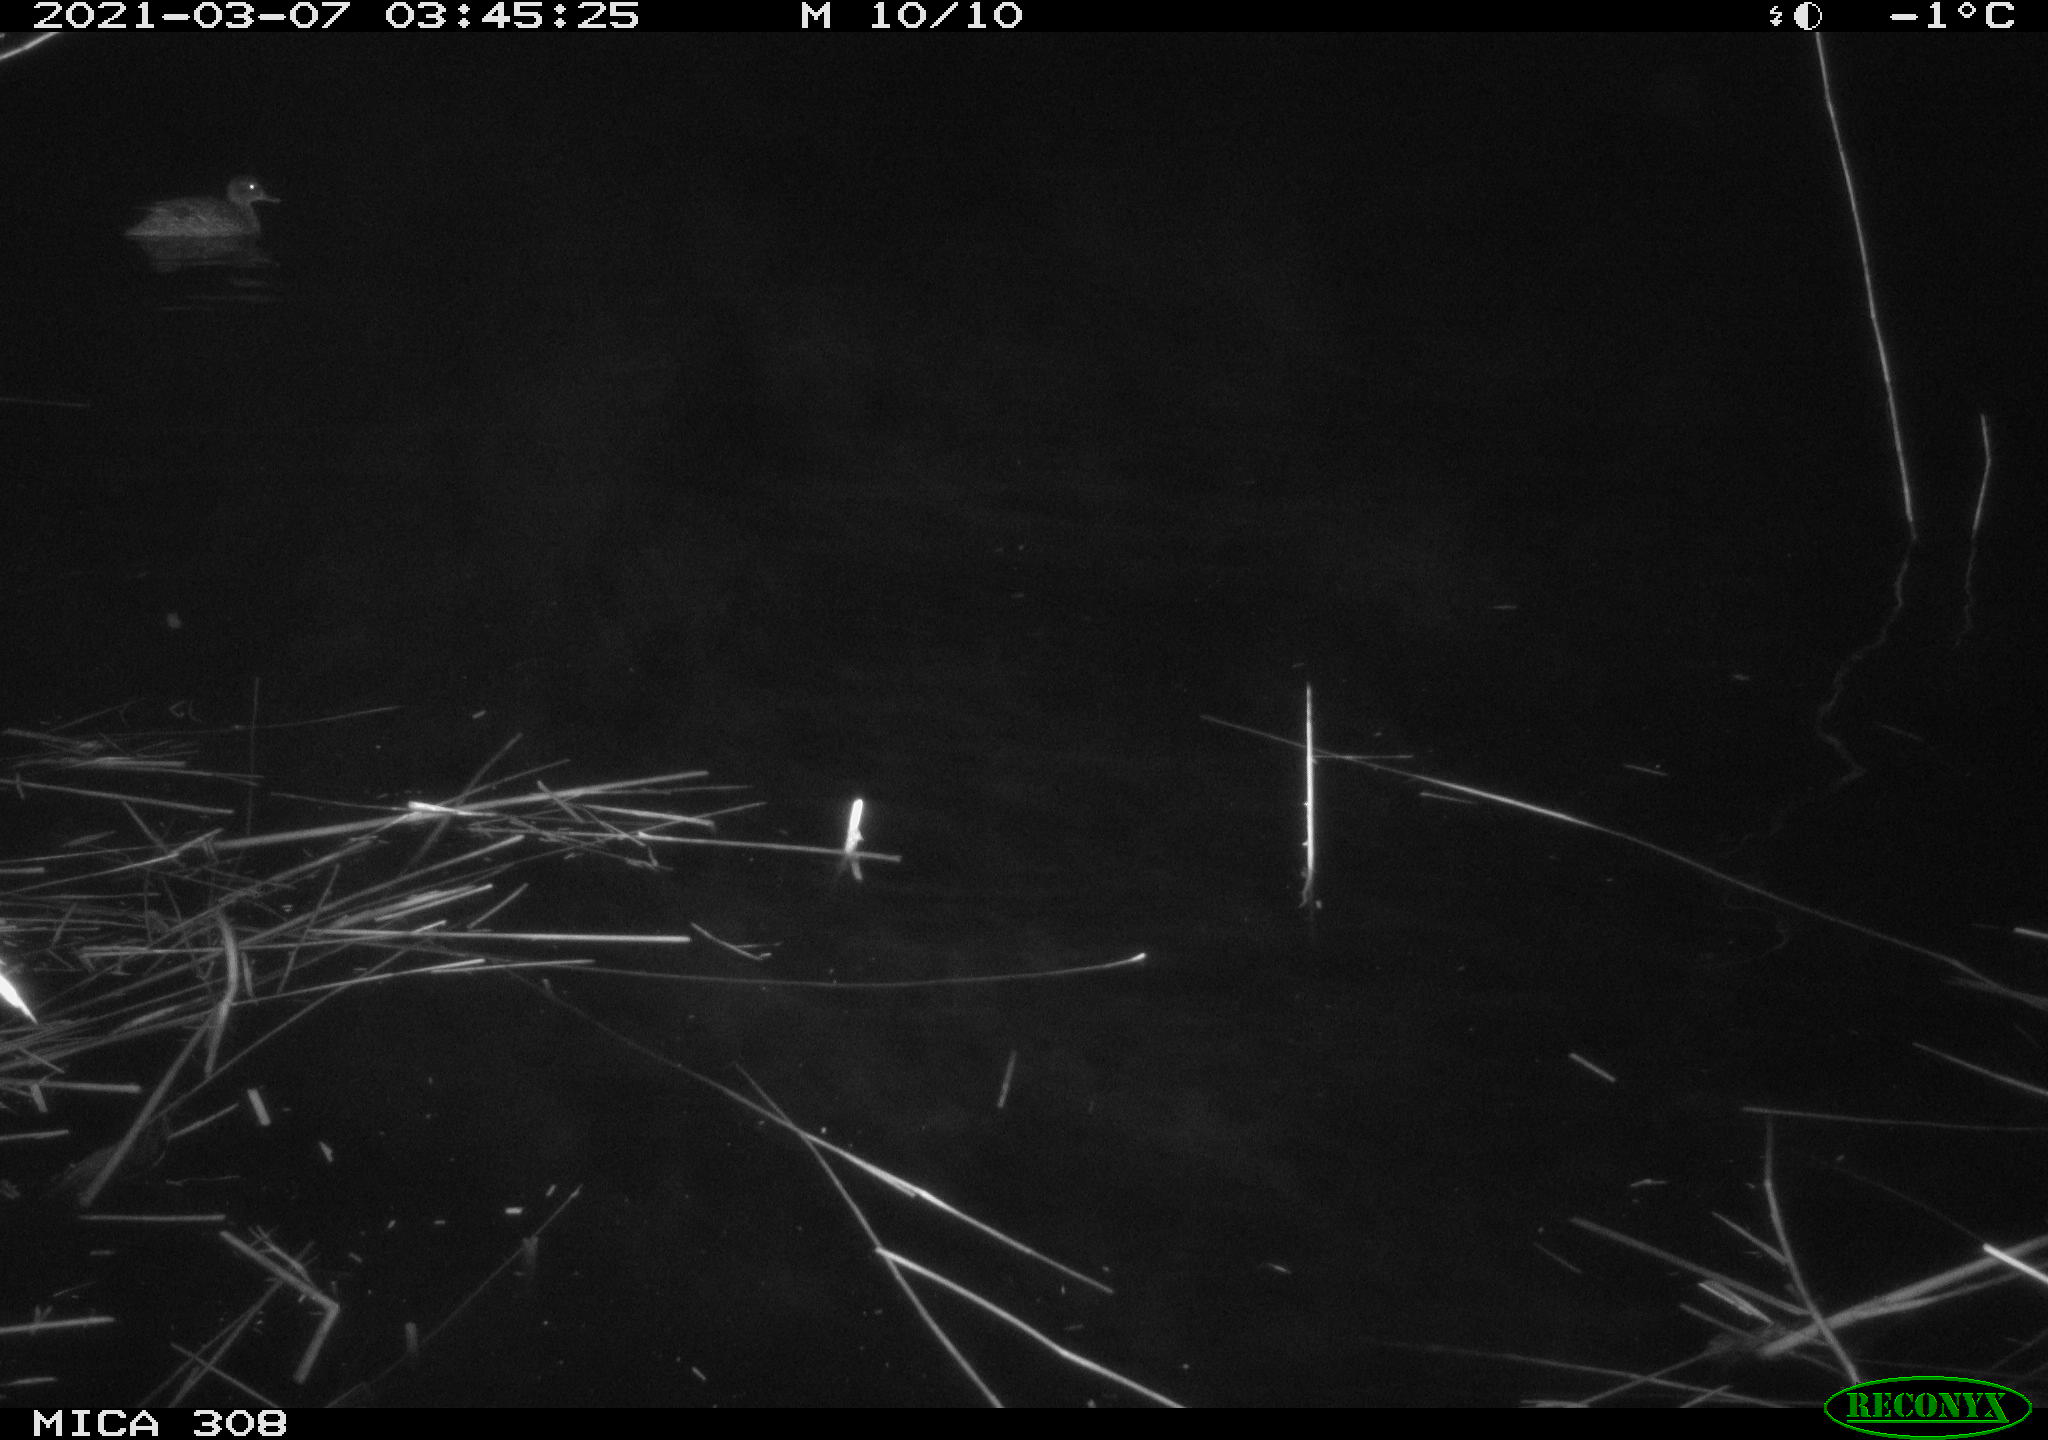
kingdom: Animalia
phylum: Chordata
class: Aves
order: Anseriformes
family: Anatidae
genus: Anas
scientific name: Anas platyrhynchos
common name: Mallard
